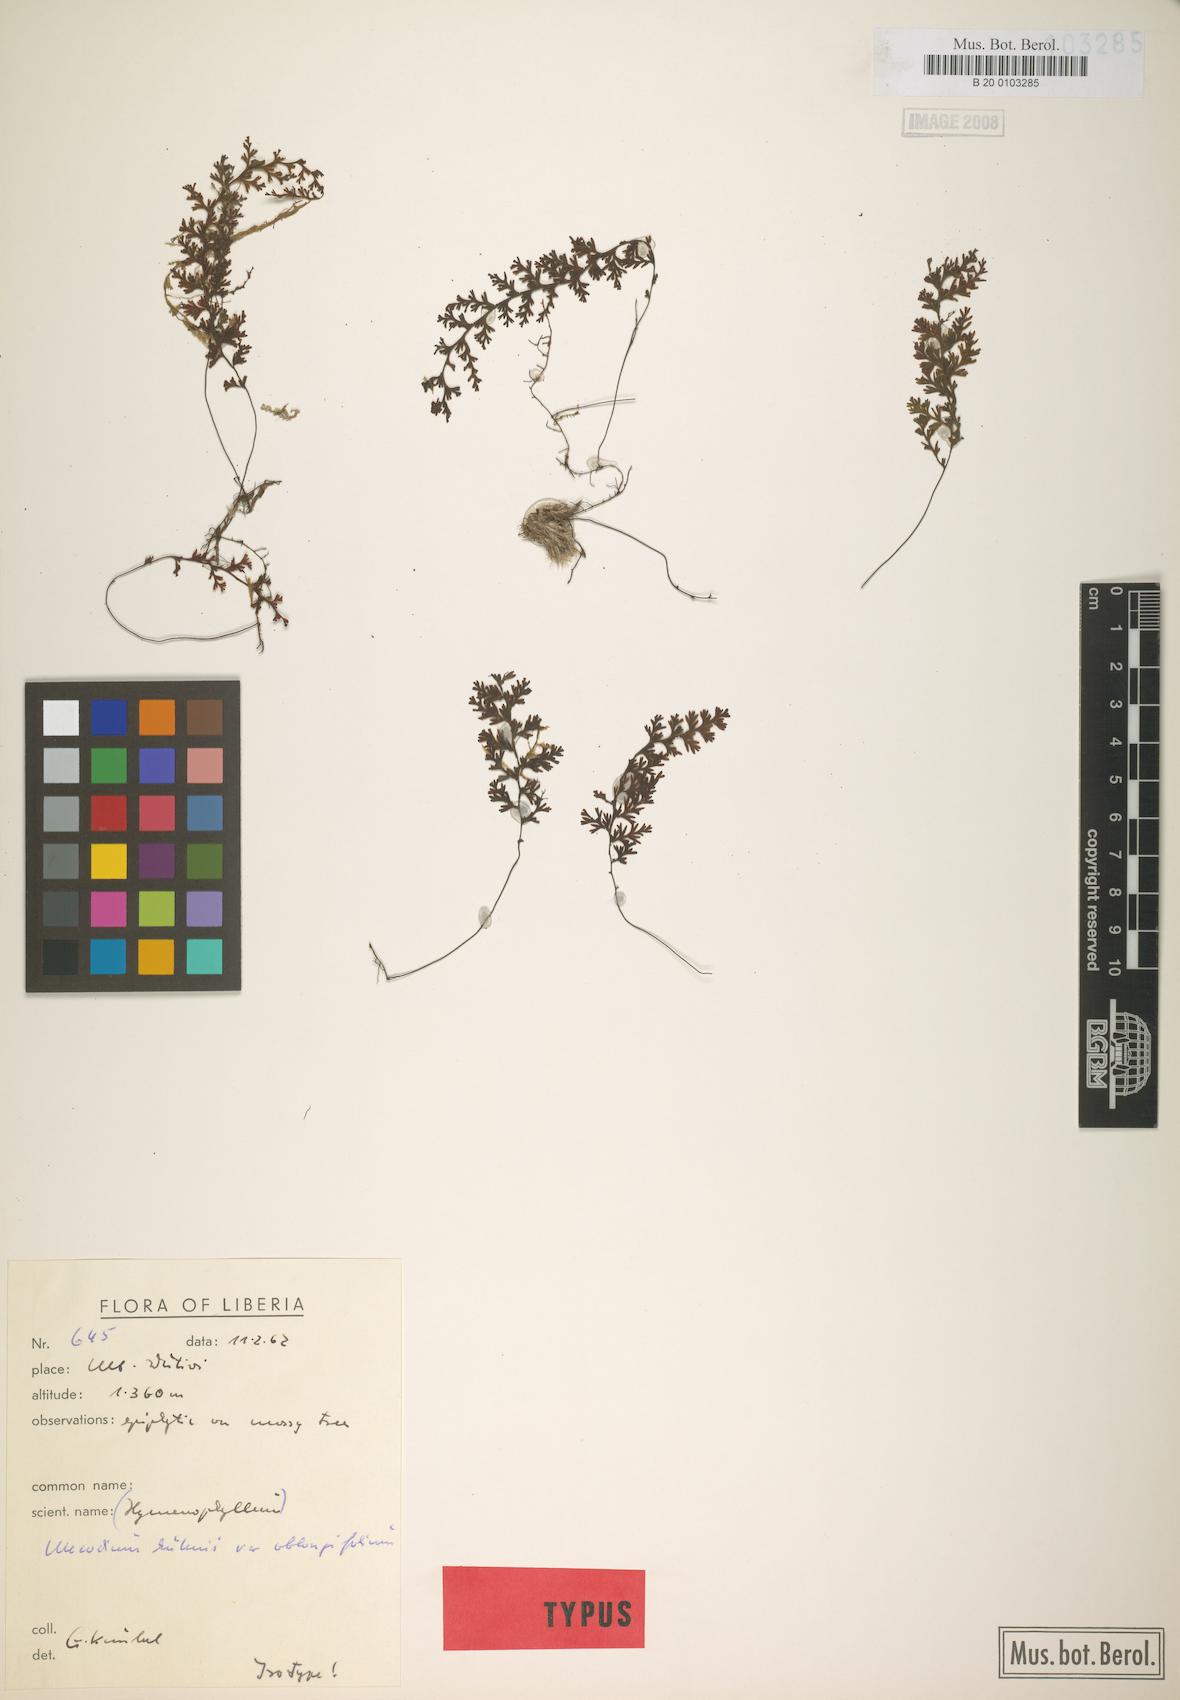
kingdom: Plantae
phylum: Tracheophyta
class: Polypodiopsida
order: Hymenophyllales
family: Hymenophyllaceae
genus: Hymenophyllum
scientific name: Hymenophyllum kuhnii
